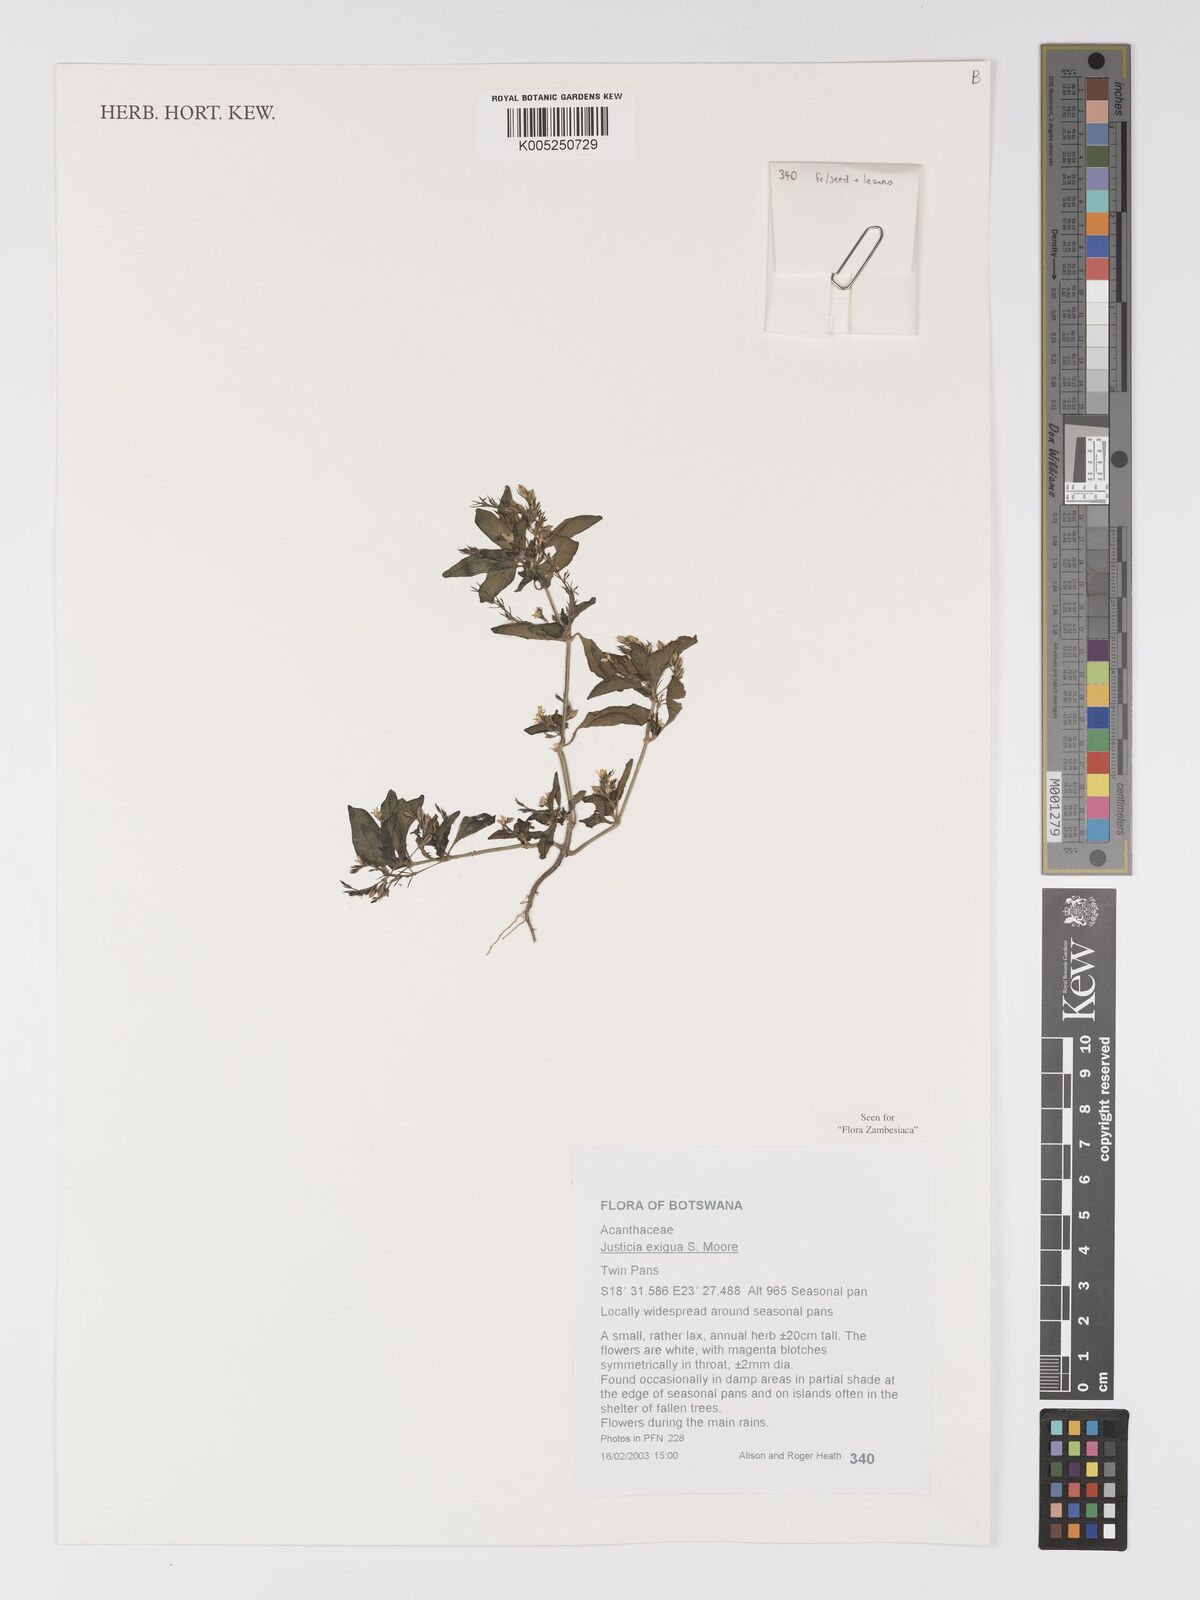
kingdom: Plantae
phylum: Tracheophyta
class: Magnoliopsida
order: Lamiales
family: Acanthaceae
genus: Justicia
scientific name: Justicia exigua
